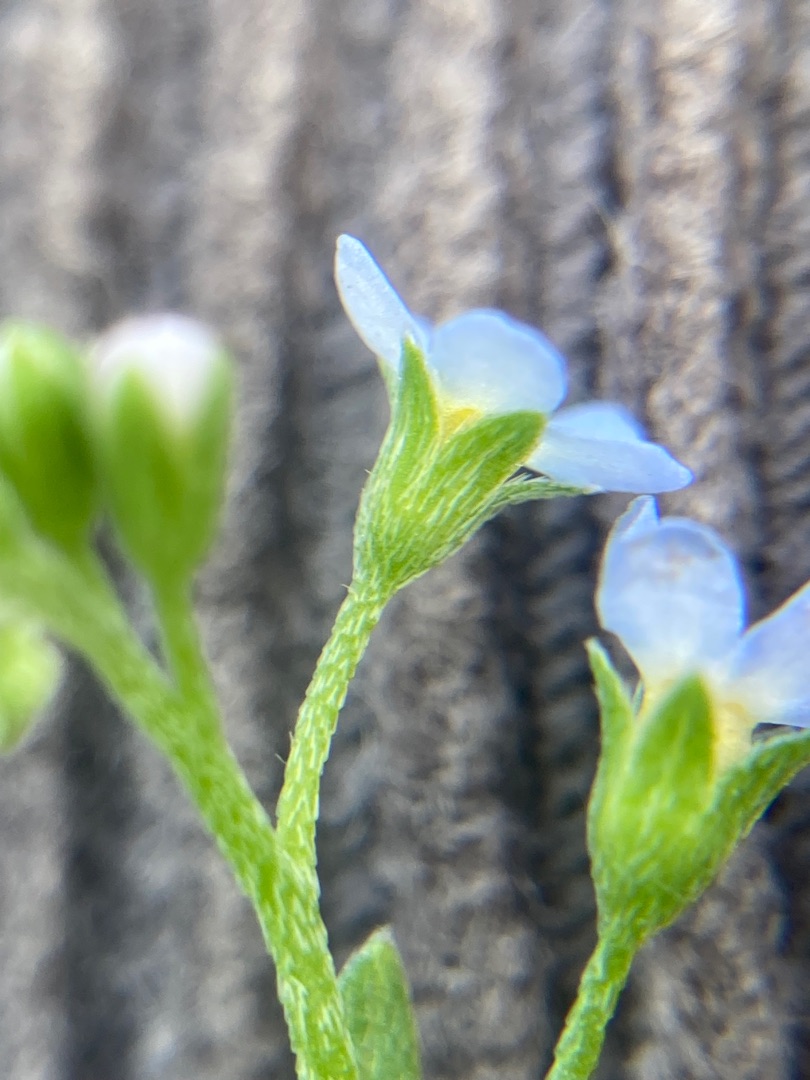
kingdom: Plantae
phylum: Tracheophyta
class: Magnoliopsida
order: Boraginales
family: Boraginaceae
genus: Myosotis
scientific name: Myosotis laxa
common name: Sump-forglemmigej
